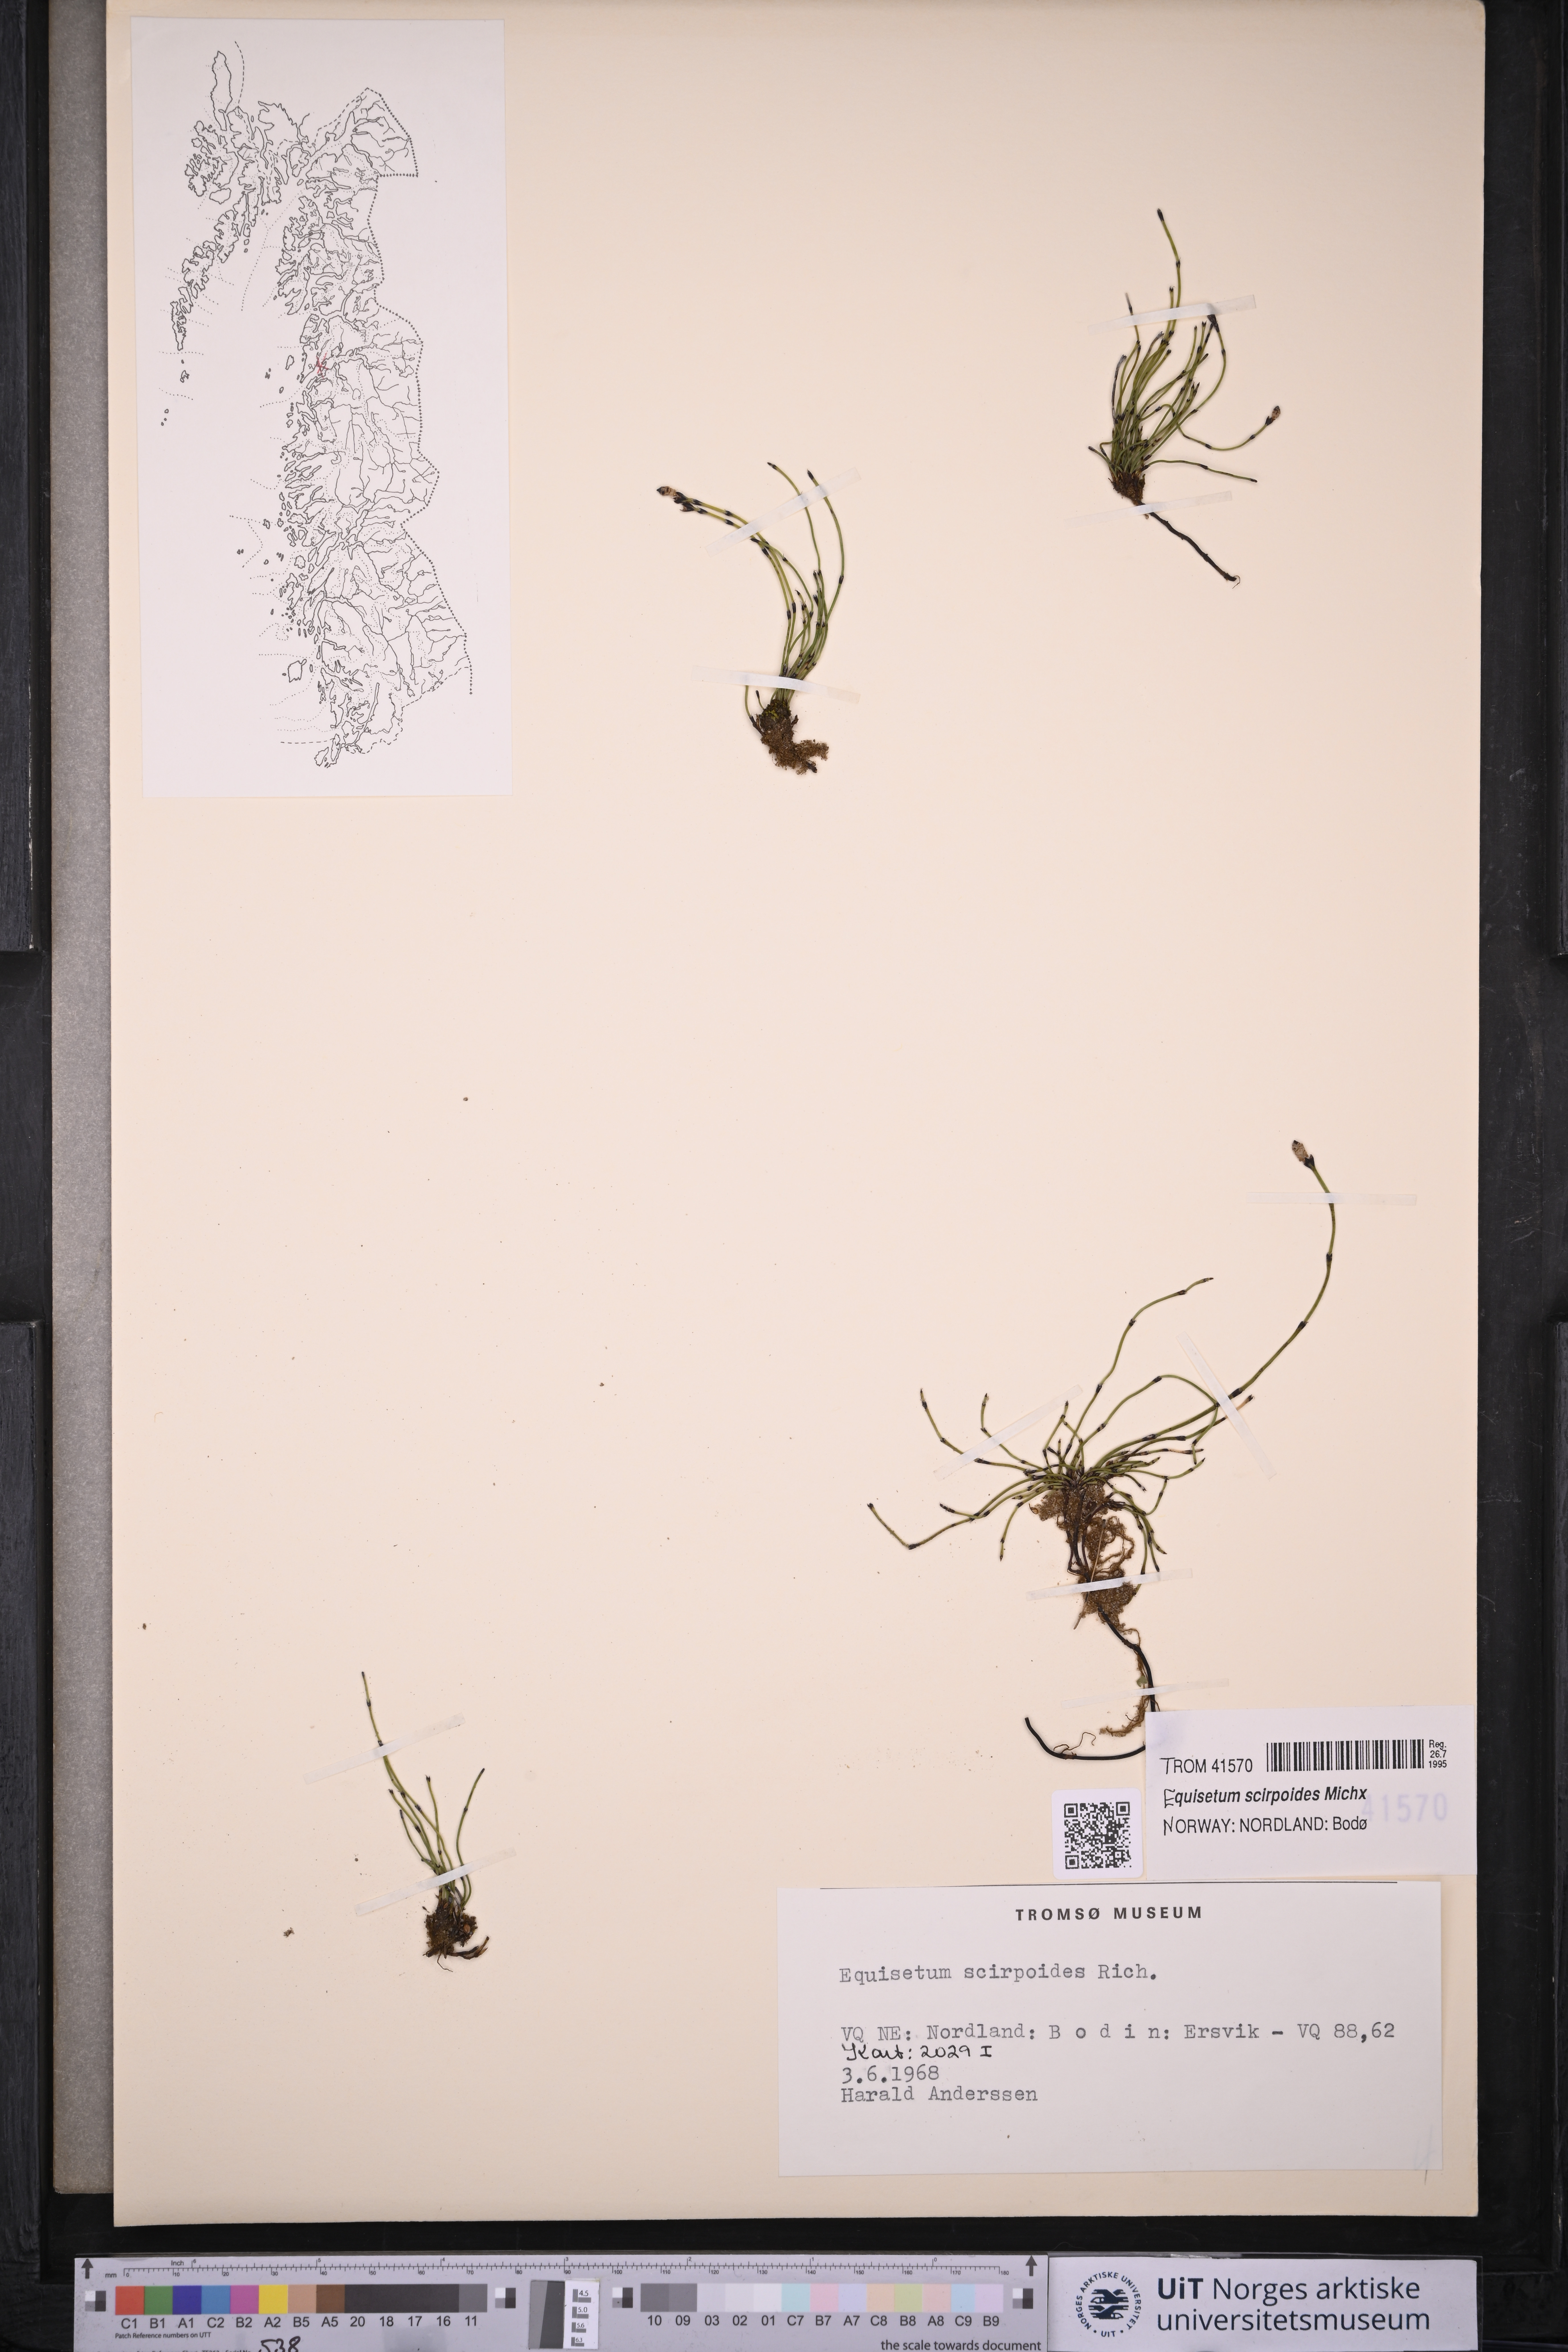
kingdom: Plantae
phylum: Tracheophyta
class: Polypodiopsida
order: Equisetales
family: Equisetaceae
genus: Equisetum
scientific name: Equisetum scirpoides
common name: Delicate horsetail
